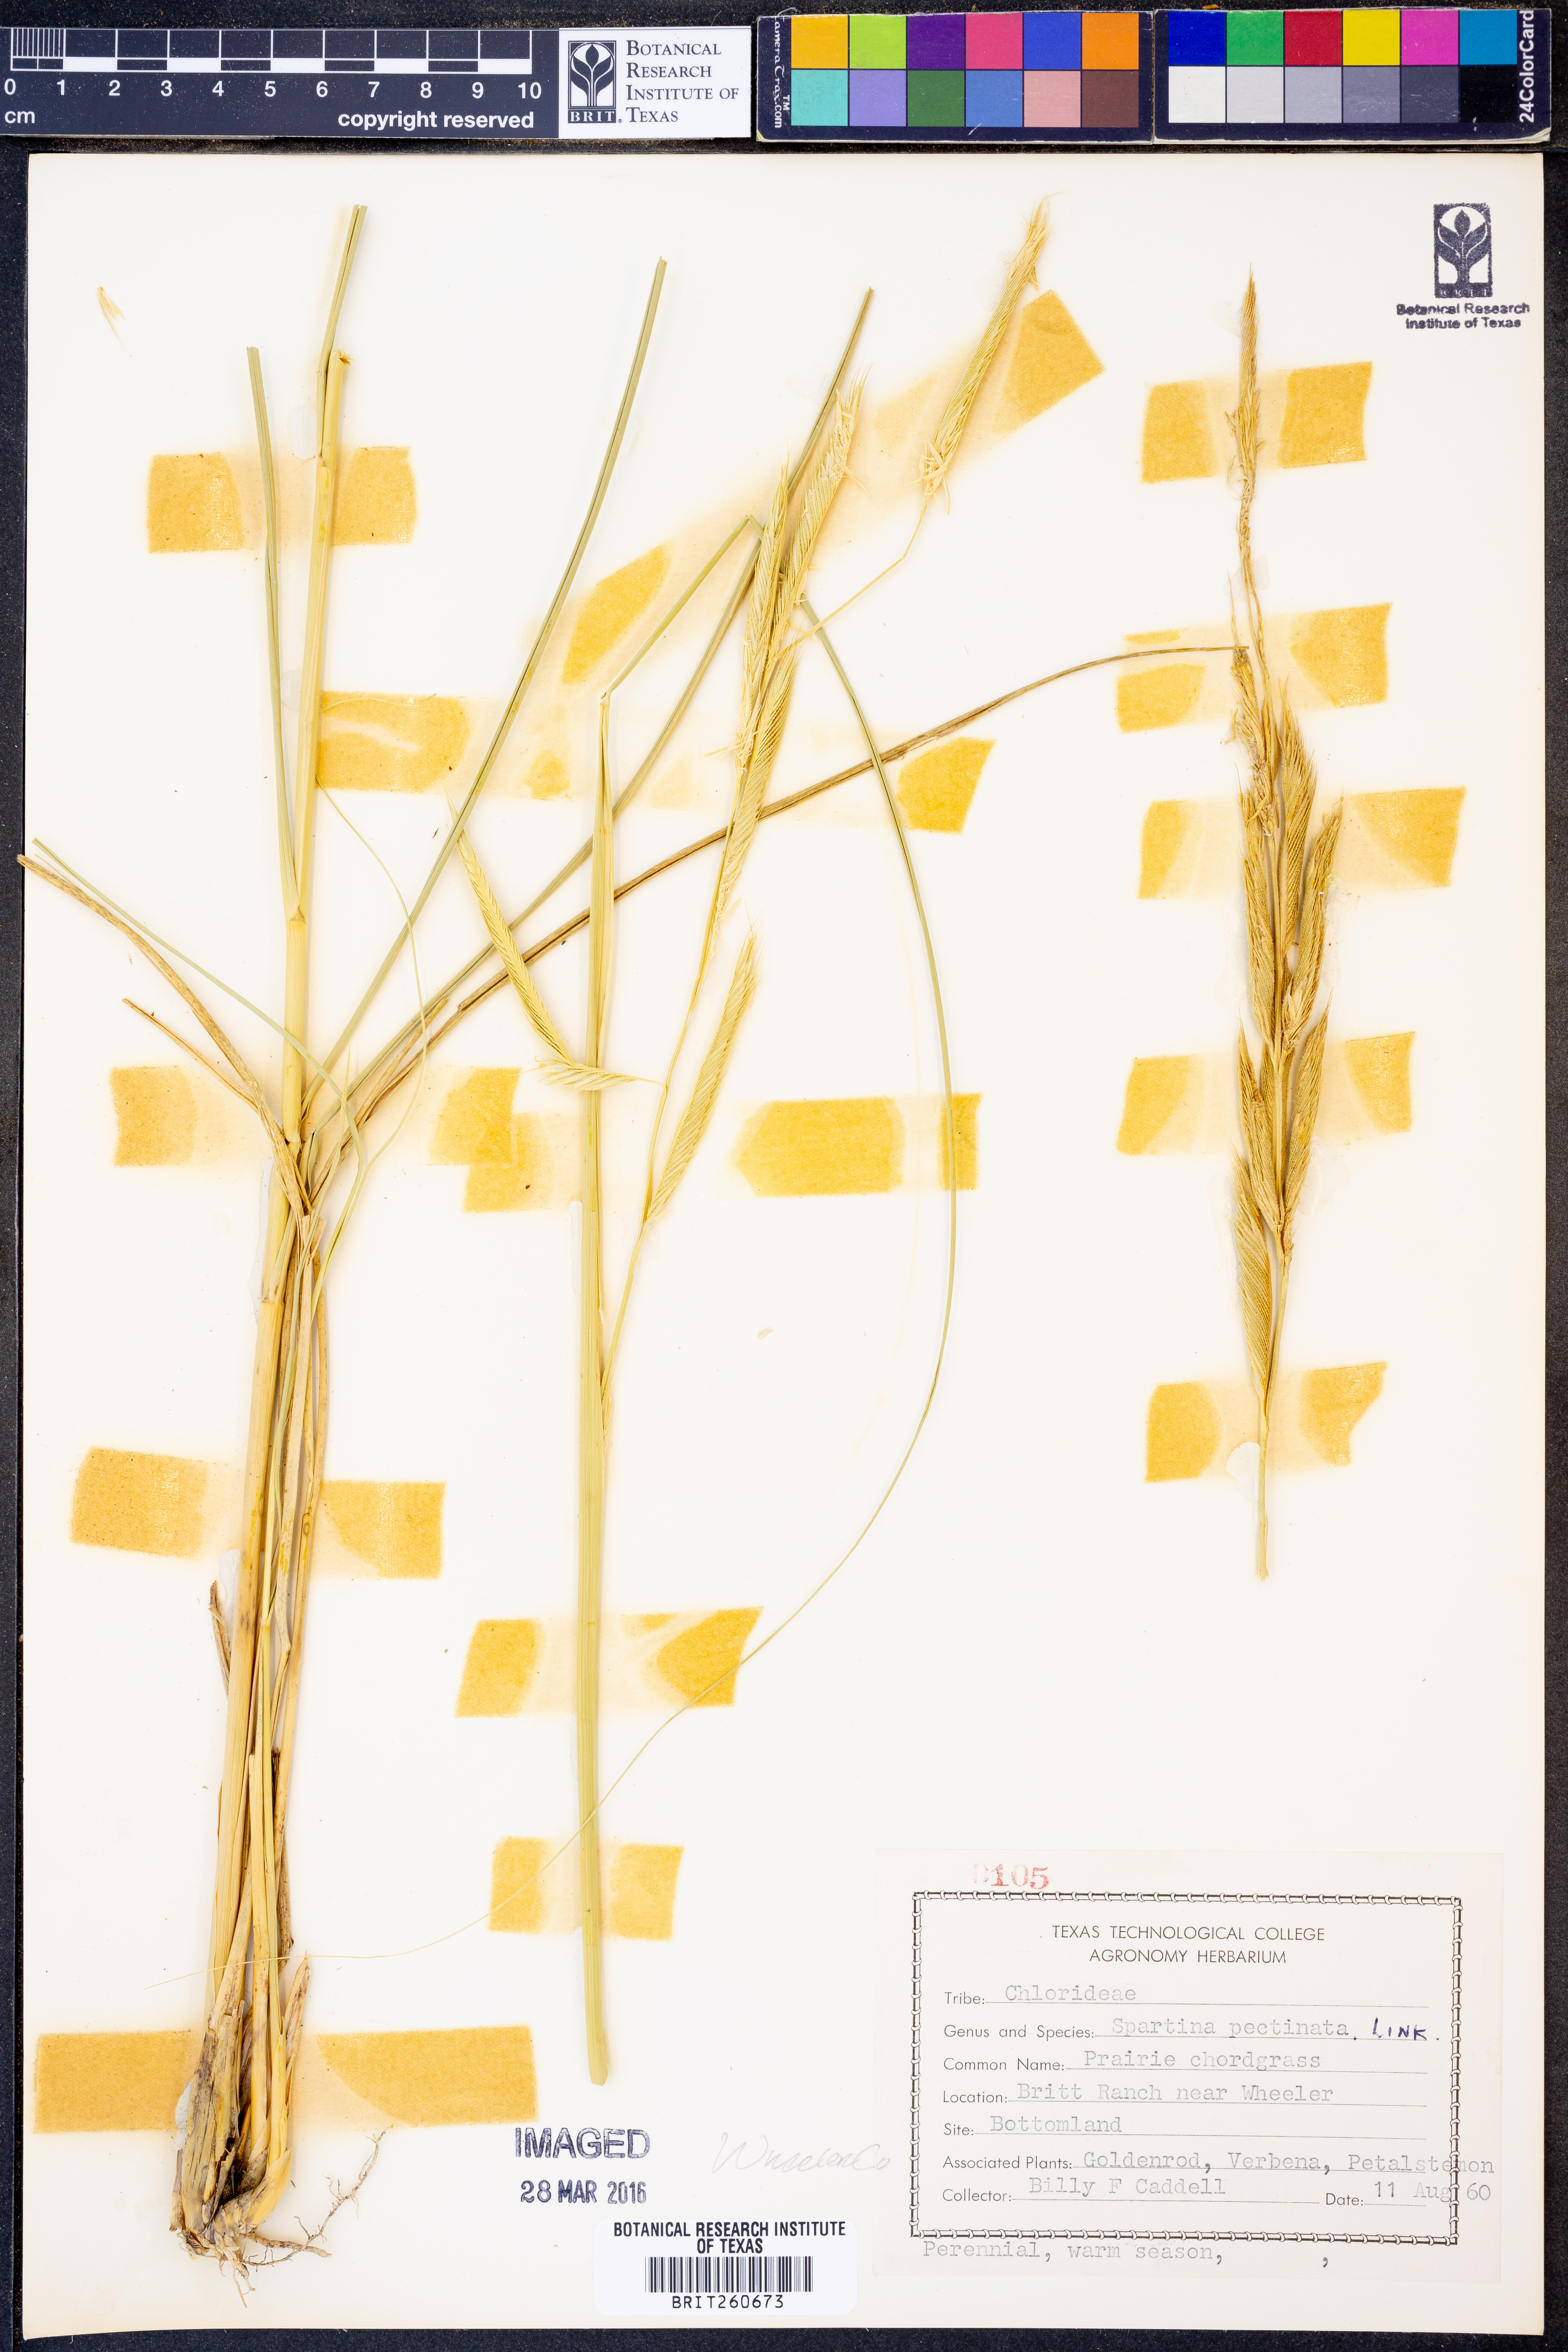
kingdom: Plantae
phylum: Tracheophyta
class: Liliopsida
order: Poales
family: Poaceae
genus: Sporobolus
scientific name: Sporobolus michauxianus
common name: Freshwater cordgrass
